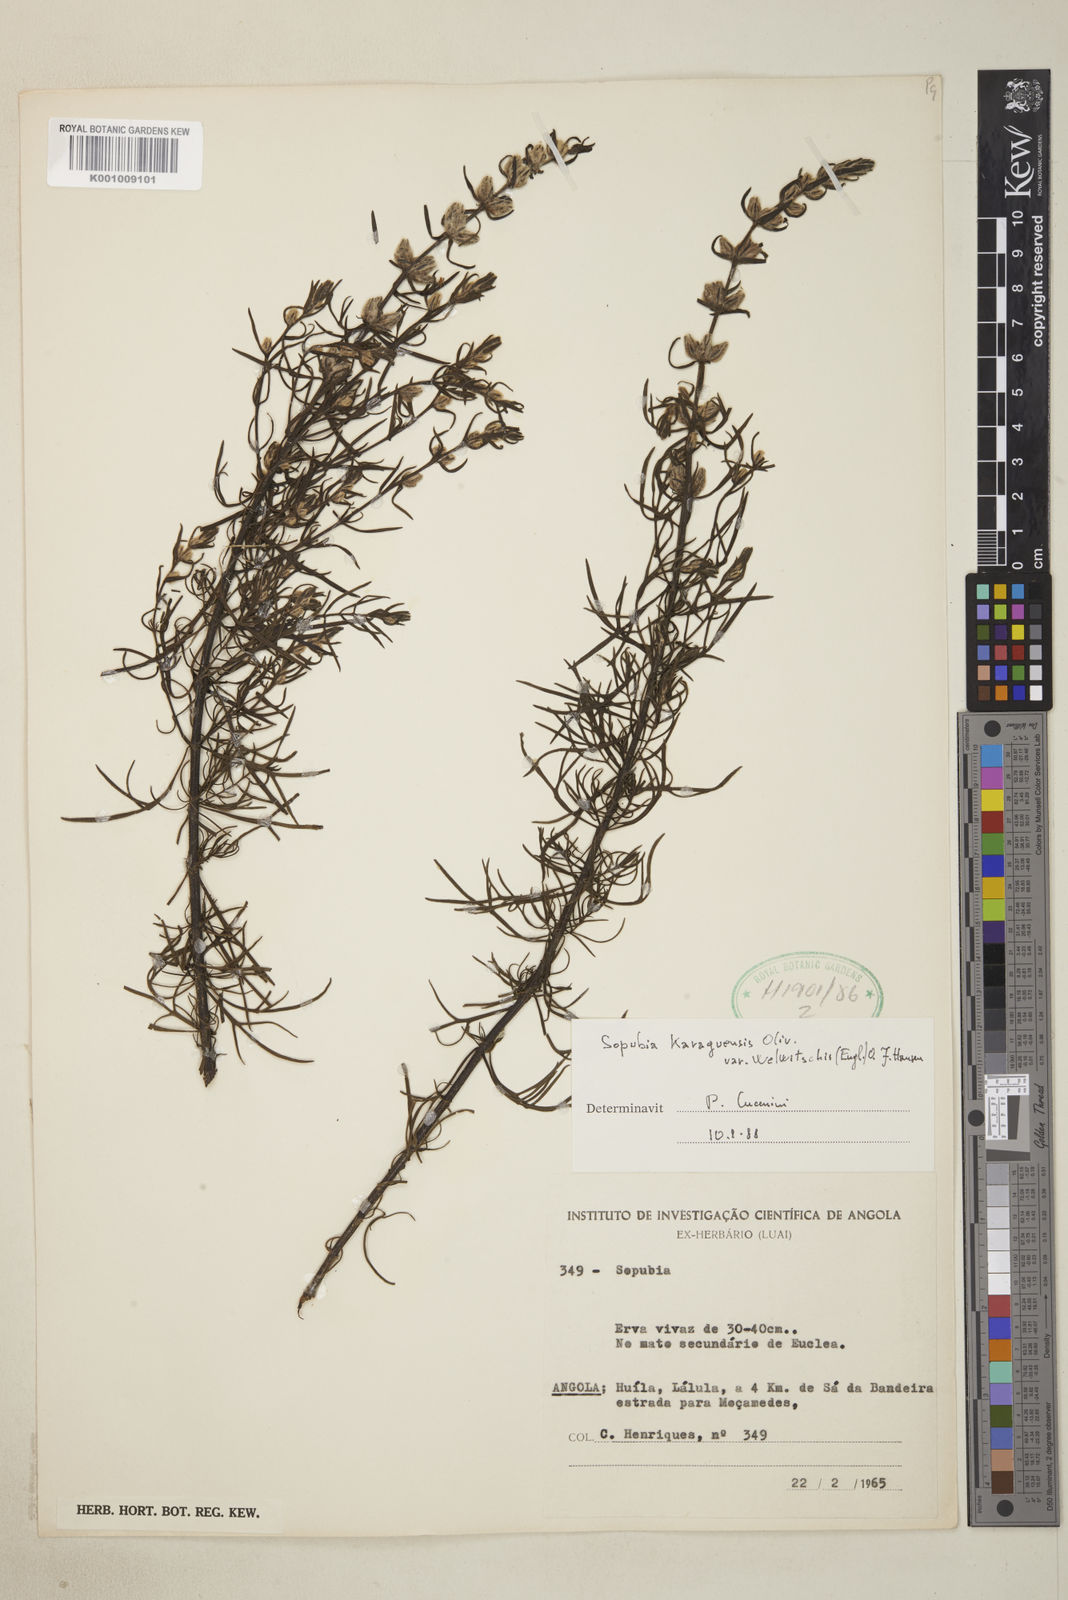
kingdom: Plantae
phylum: Tracheophyta
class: Magnoliopsida
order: Lamiales
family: Orobanchaceae
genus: Sopubia
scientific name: Sopubia karaguensis
